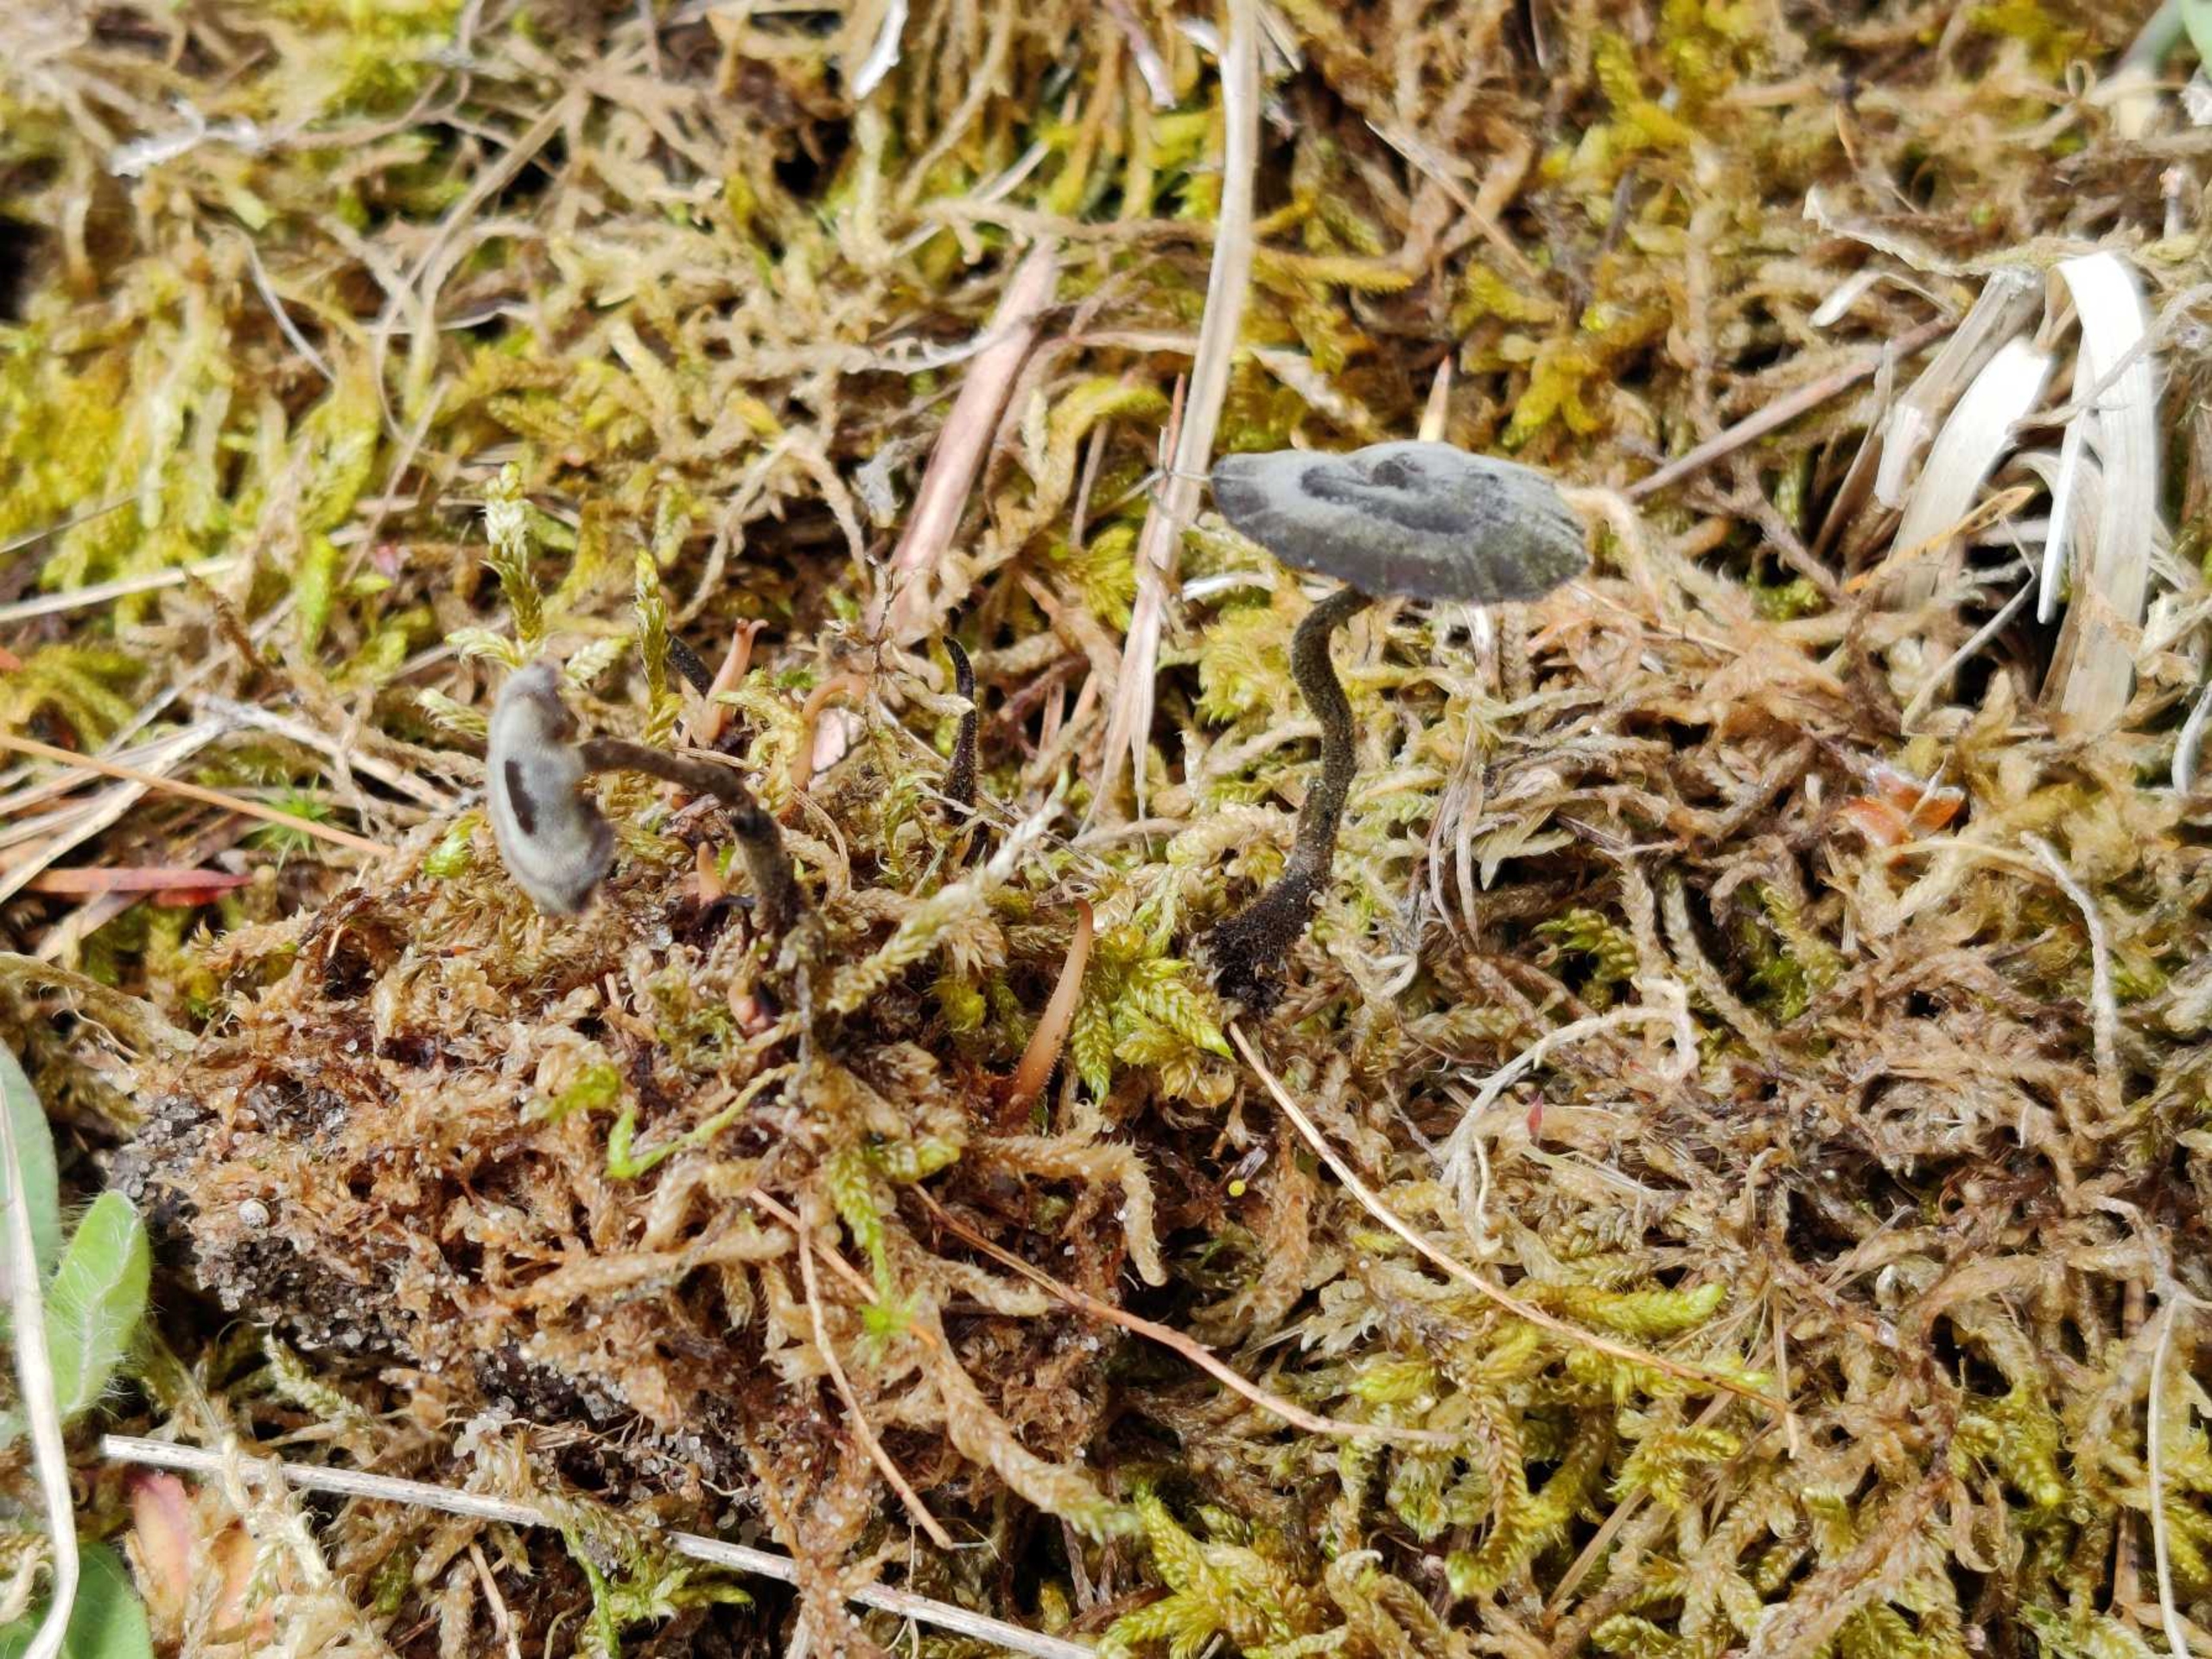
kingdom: Fungi
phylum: Basidiomycota
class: Agaricomycetes
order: Russulales
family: Auriscalpiaceae
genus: Auriscalpium
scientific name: Auriscalpium vulgare
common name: Koglepigsvamp
